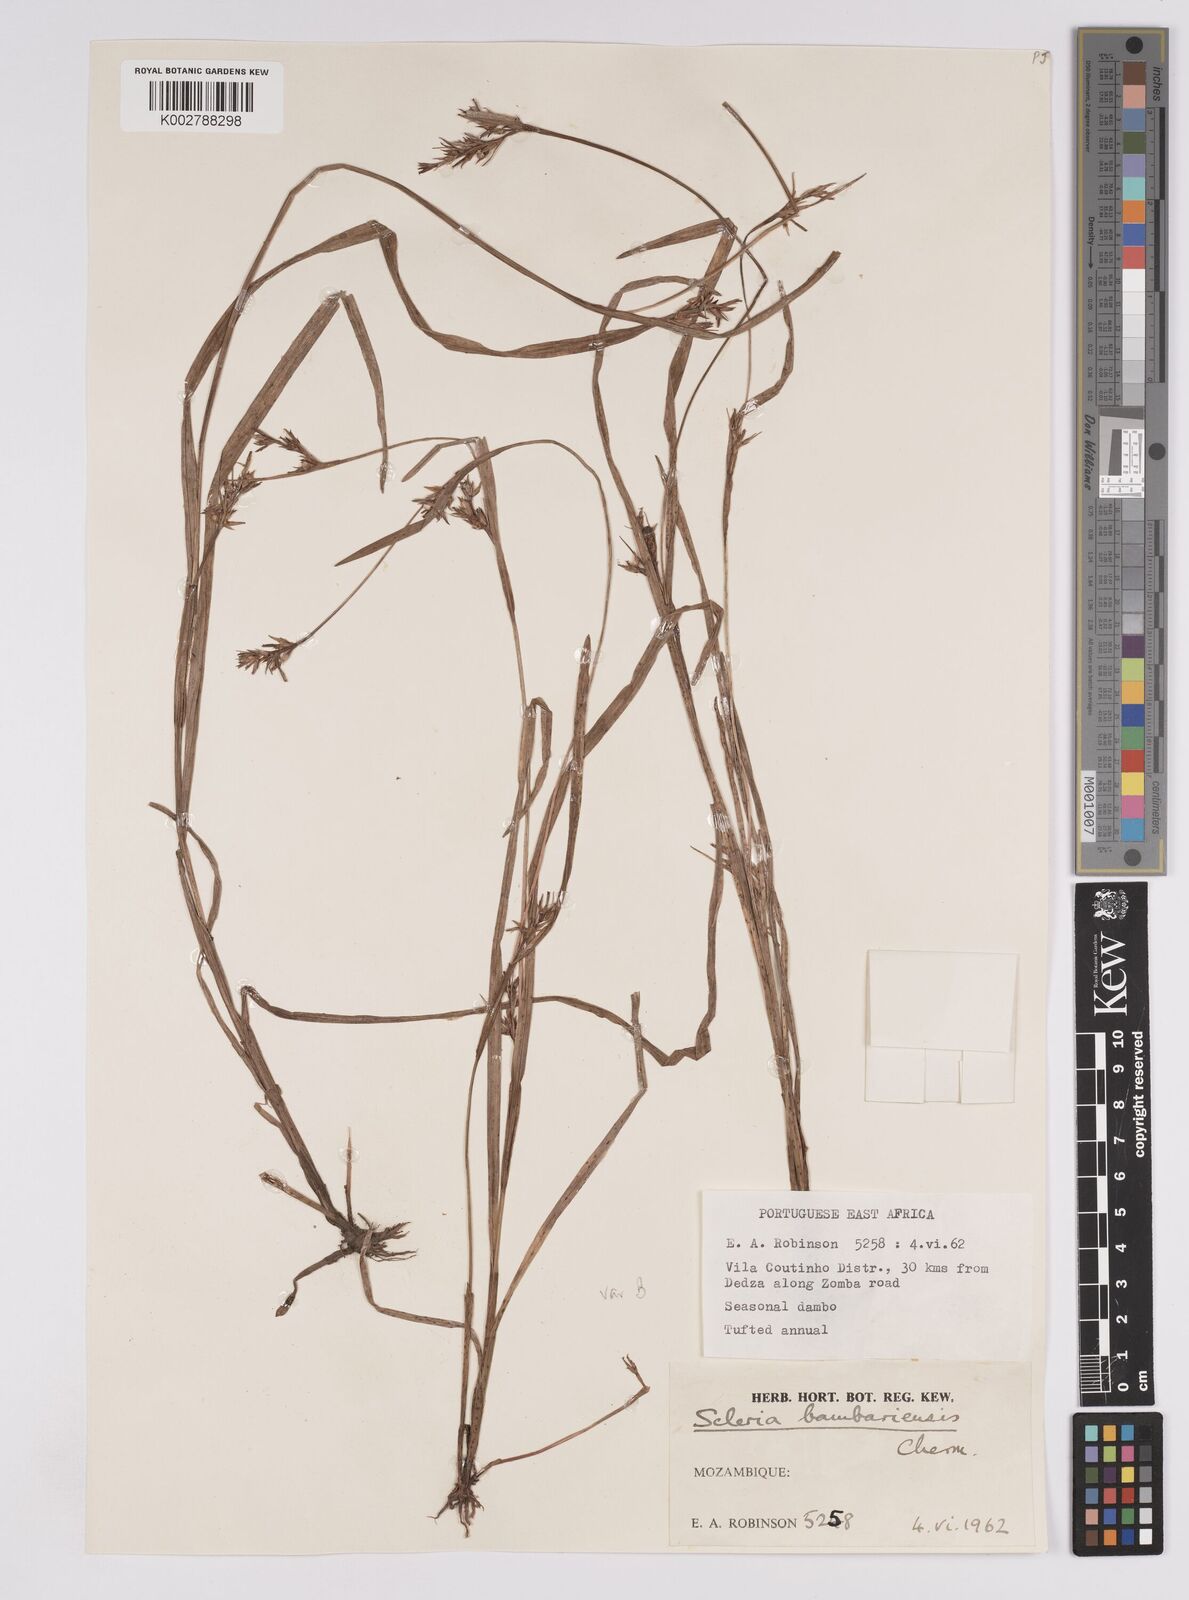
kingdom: Plantae
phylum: Tracheophyta
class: Liliopsida
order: Poales
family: Cyperaceae
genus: Scleria
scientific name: Scleria bambariensis
